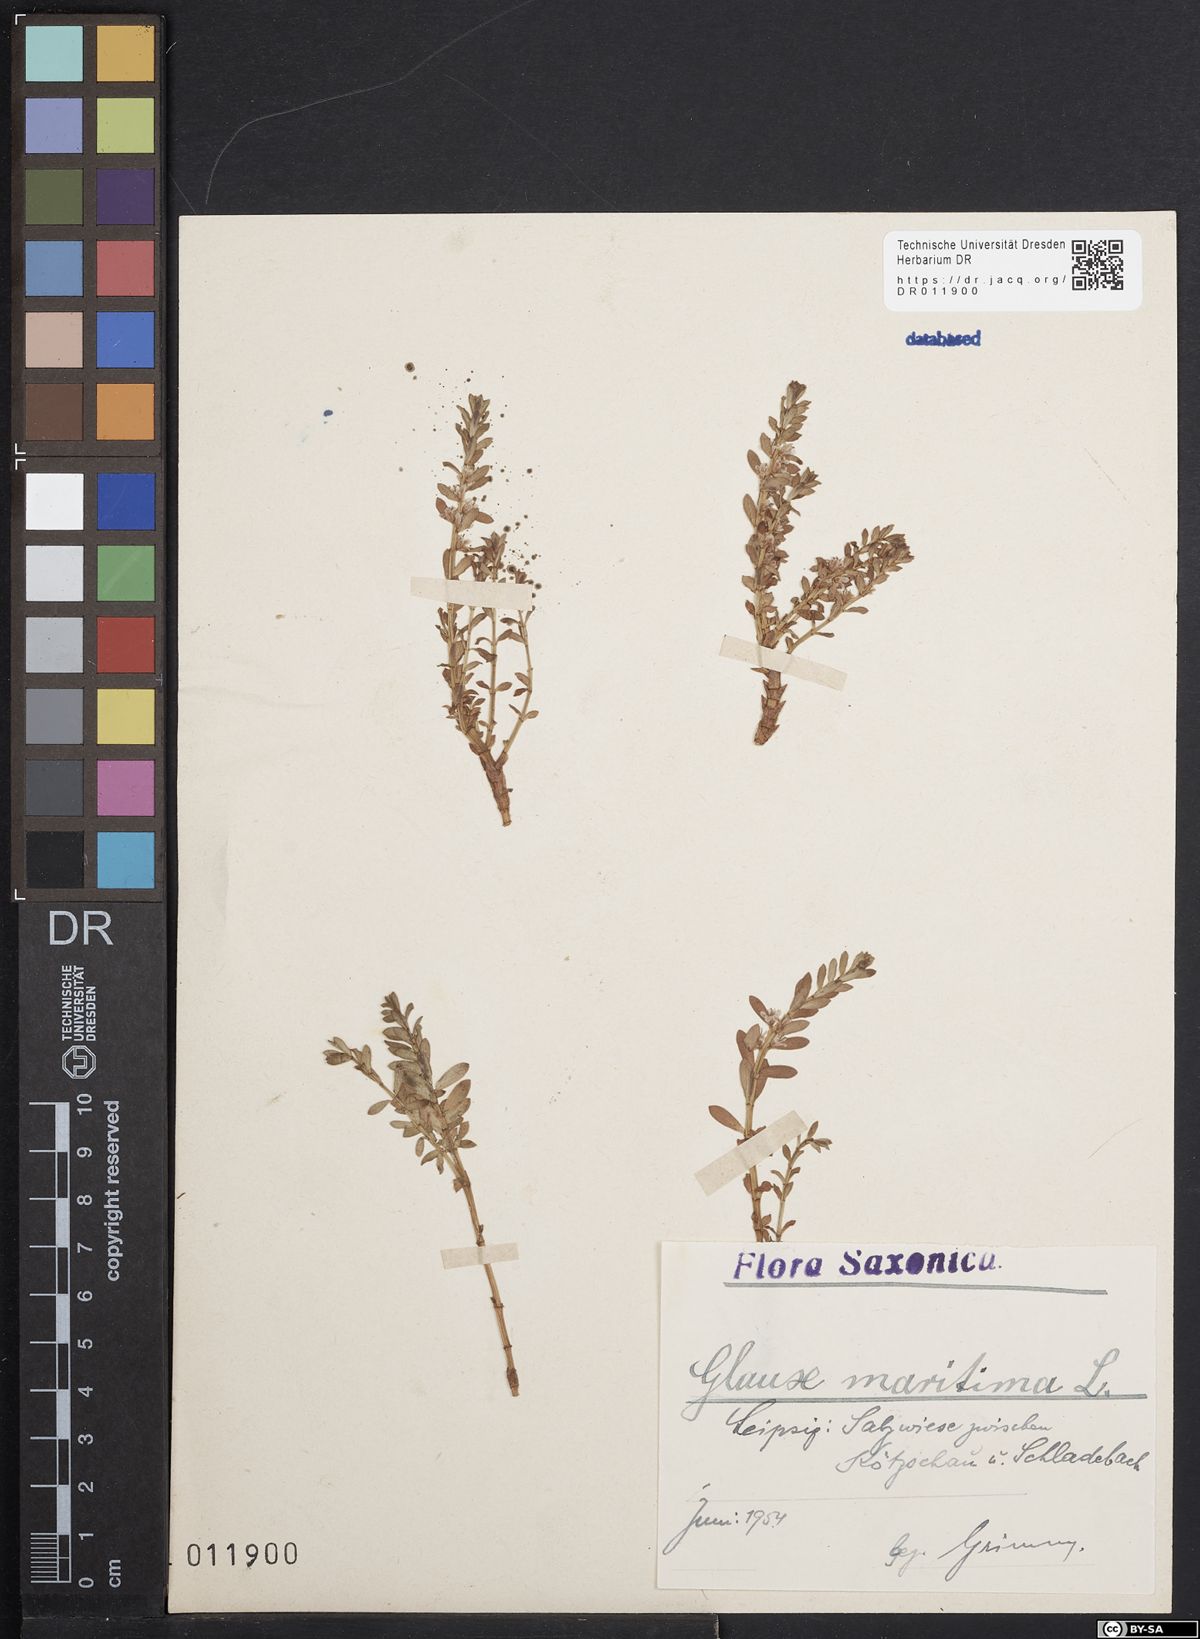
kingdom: Plantae
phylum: Tracheophyta
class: Magnoliopsida
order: Ericales
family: Primulaceae
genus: Lysimachia
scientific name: Lysimachia maritima
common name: Sea milkwort
